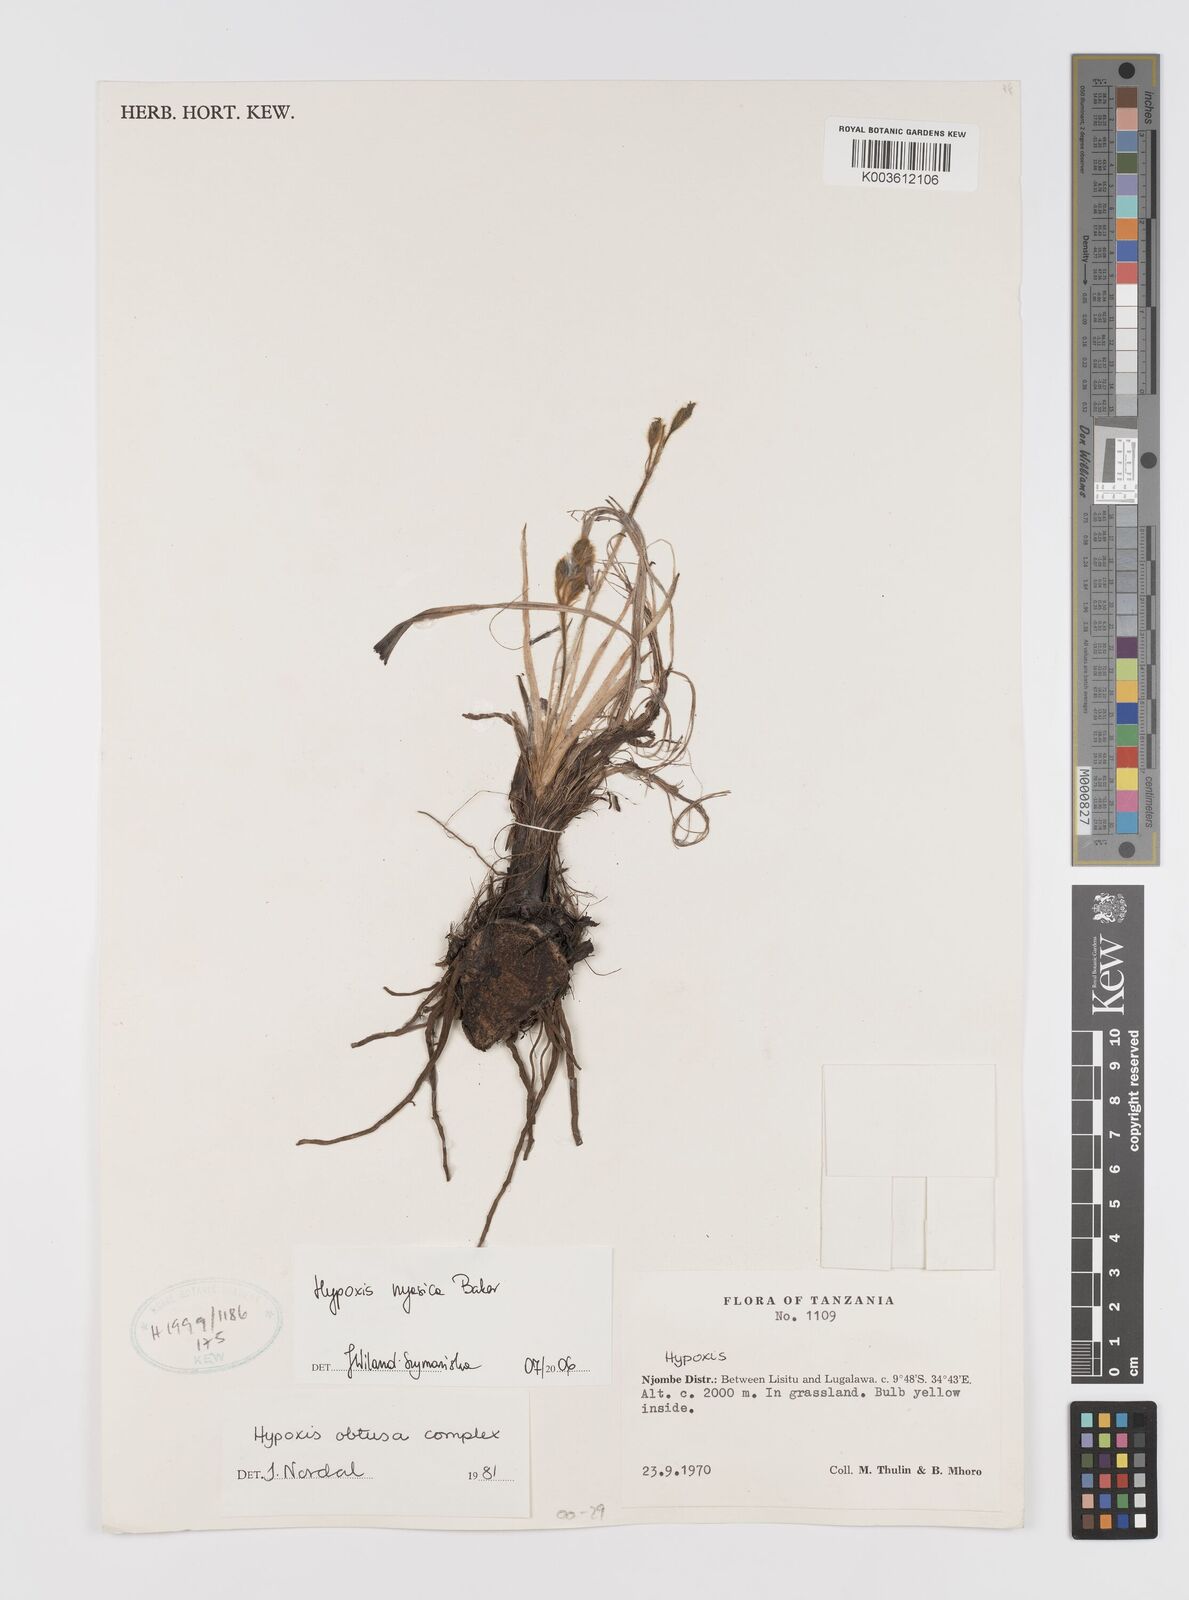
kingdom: Plantae
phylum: Tracheophyta
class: Liliopsida
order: Asparagales
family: Hypoxidaceae
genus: Hypoxis
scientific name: Hypoxis nyasica
